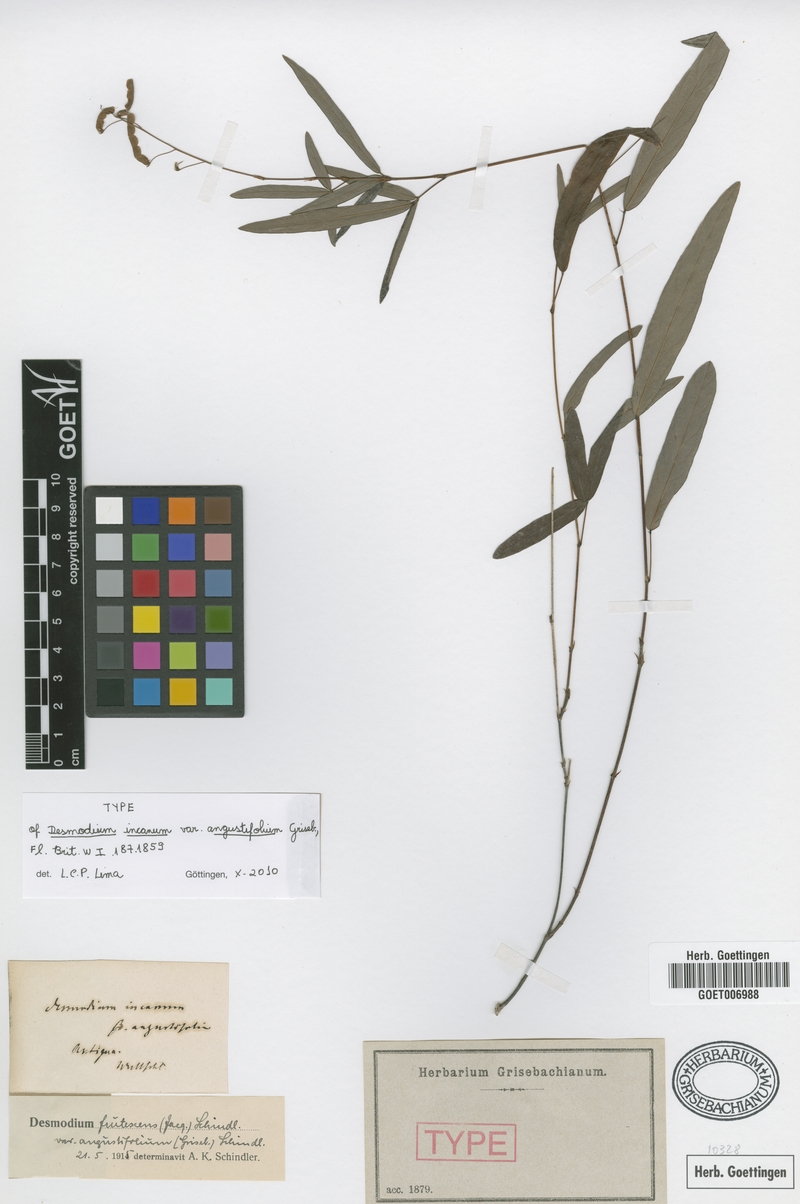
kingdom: Plantae
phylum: Tracheophyta
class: Magnoliopsida
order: Fabales
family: Fabaceae
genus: Desmodium
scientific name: Desmodium angustifolium
